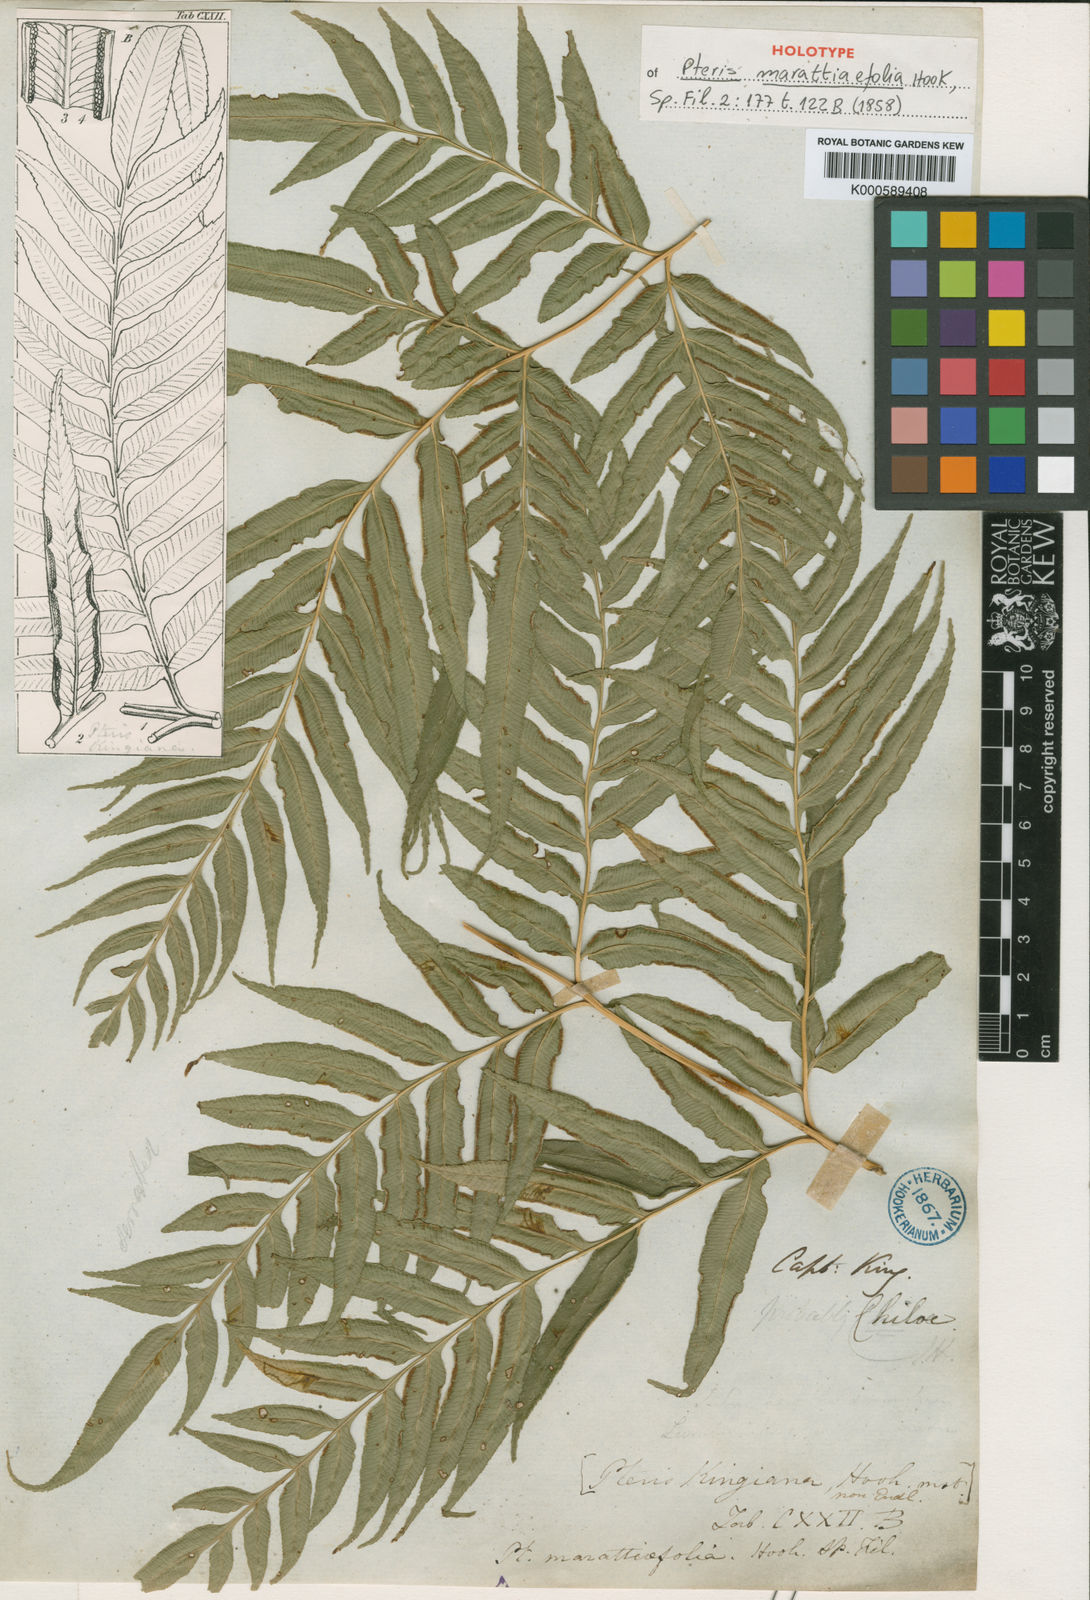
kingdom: Plantae
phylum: Tracheophyta
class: Polypodiopsida
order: Polypodiales
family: Pteridaceae
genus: Pteris
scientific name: Pteris semiadnata
